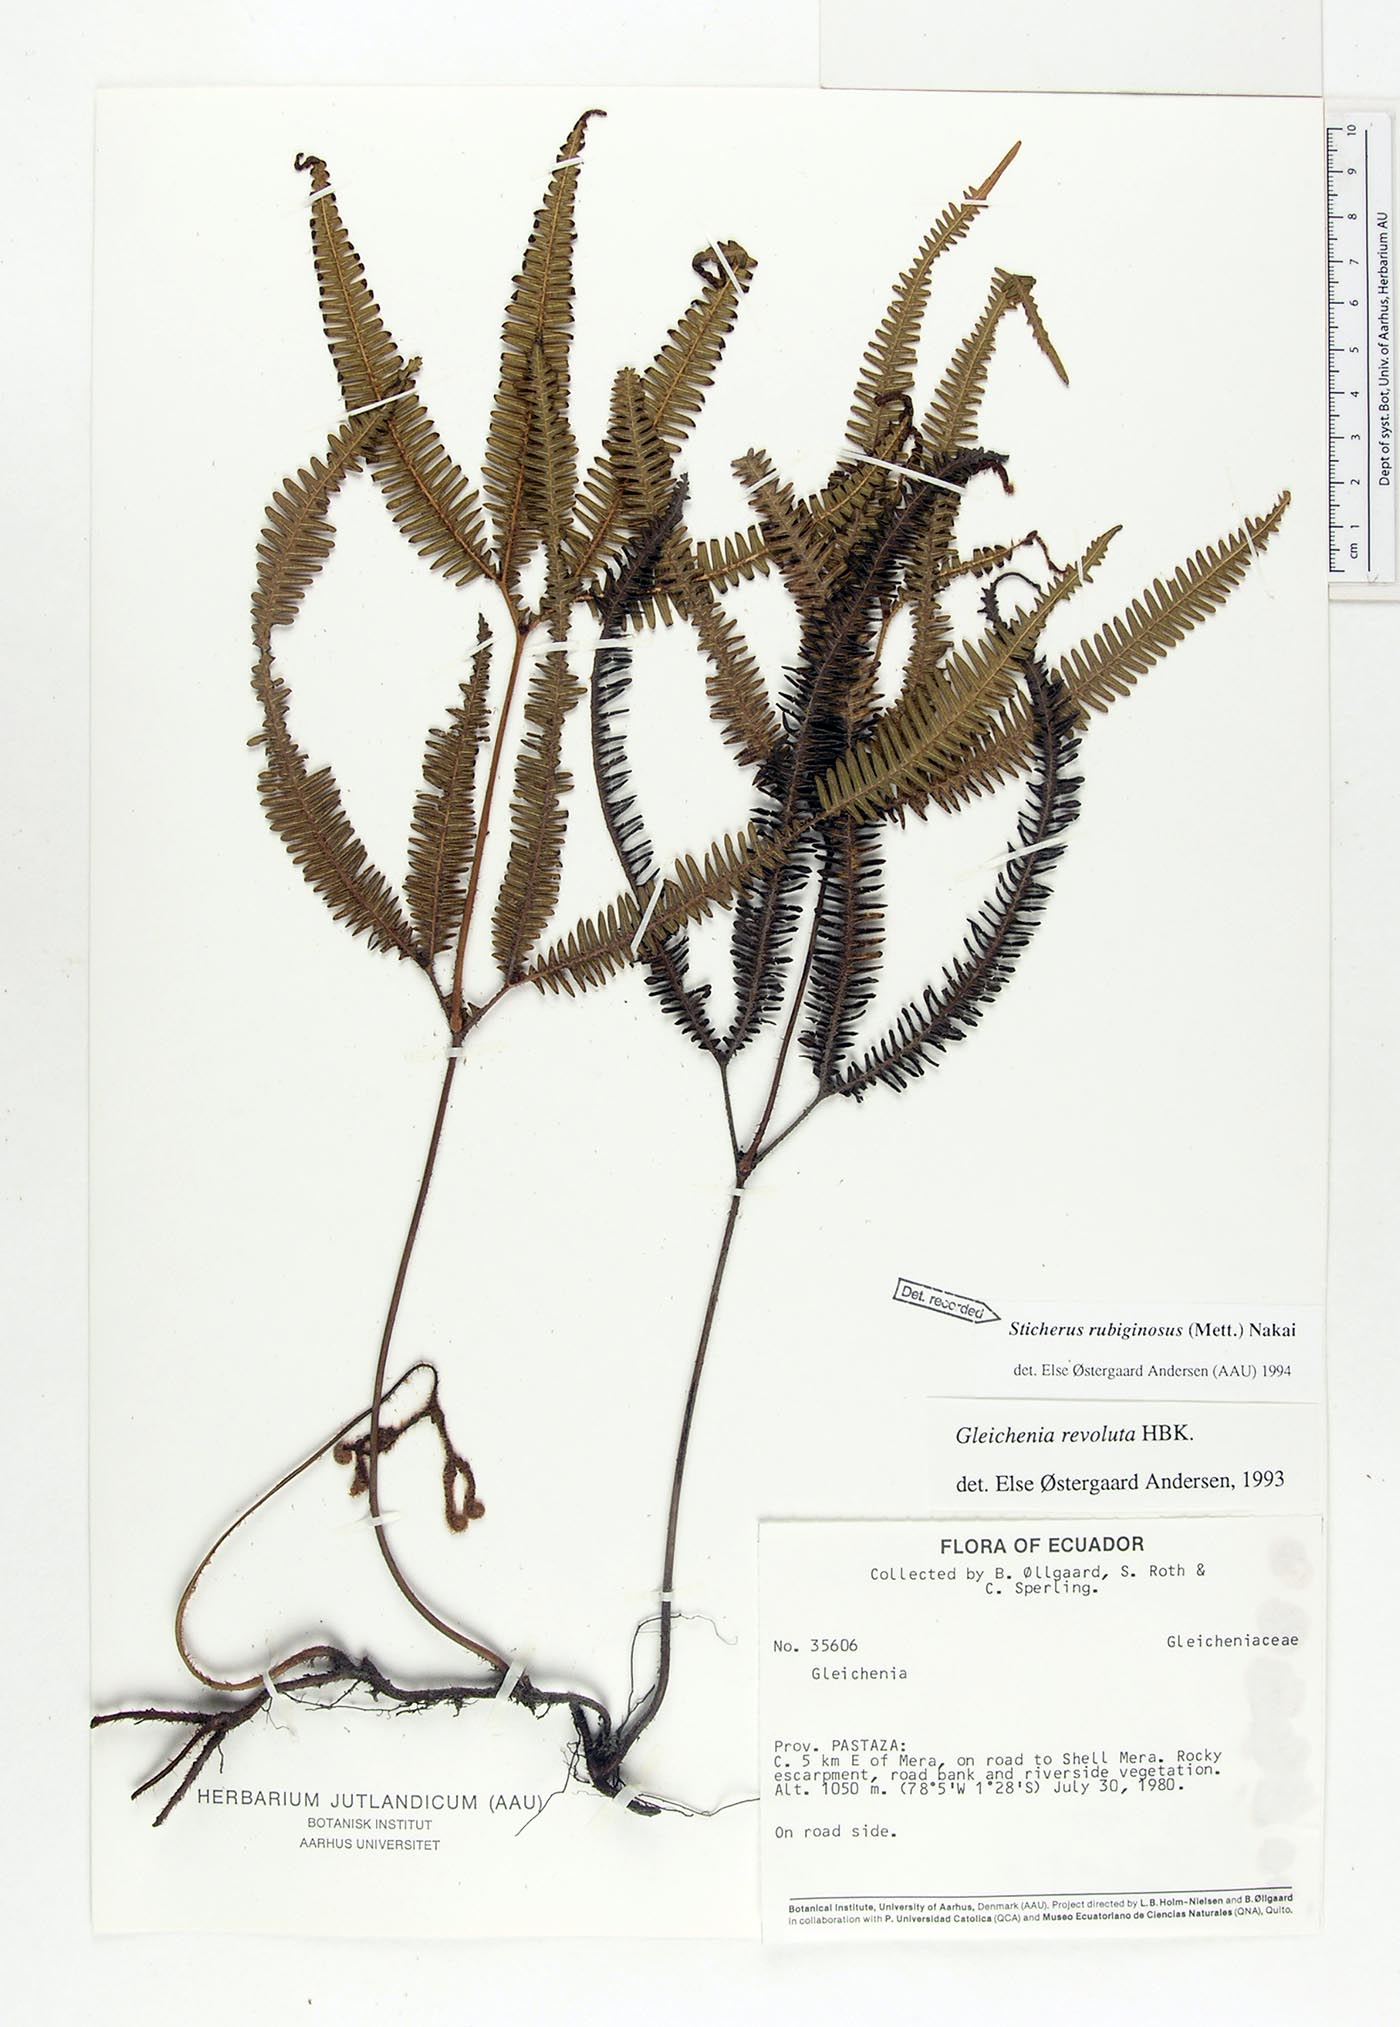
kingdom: Plantae
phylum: Tracheophyta
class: Polypodiopsida
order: Gleicheniales
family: Gleicheniaceae
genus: Sticherus
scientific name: Sticherus rubiginosus
